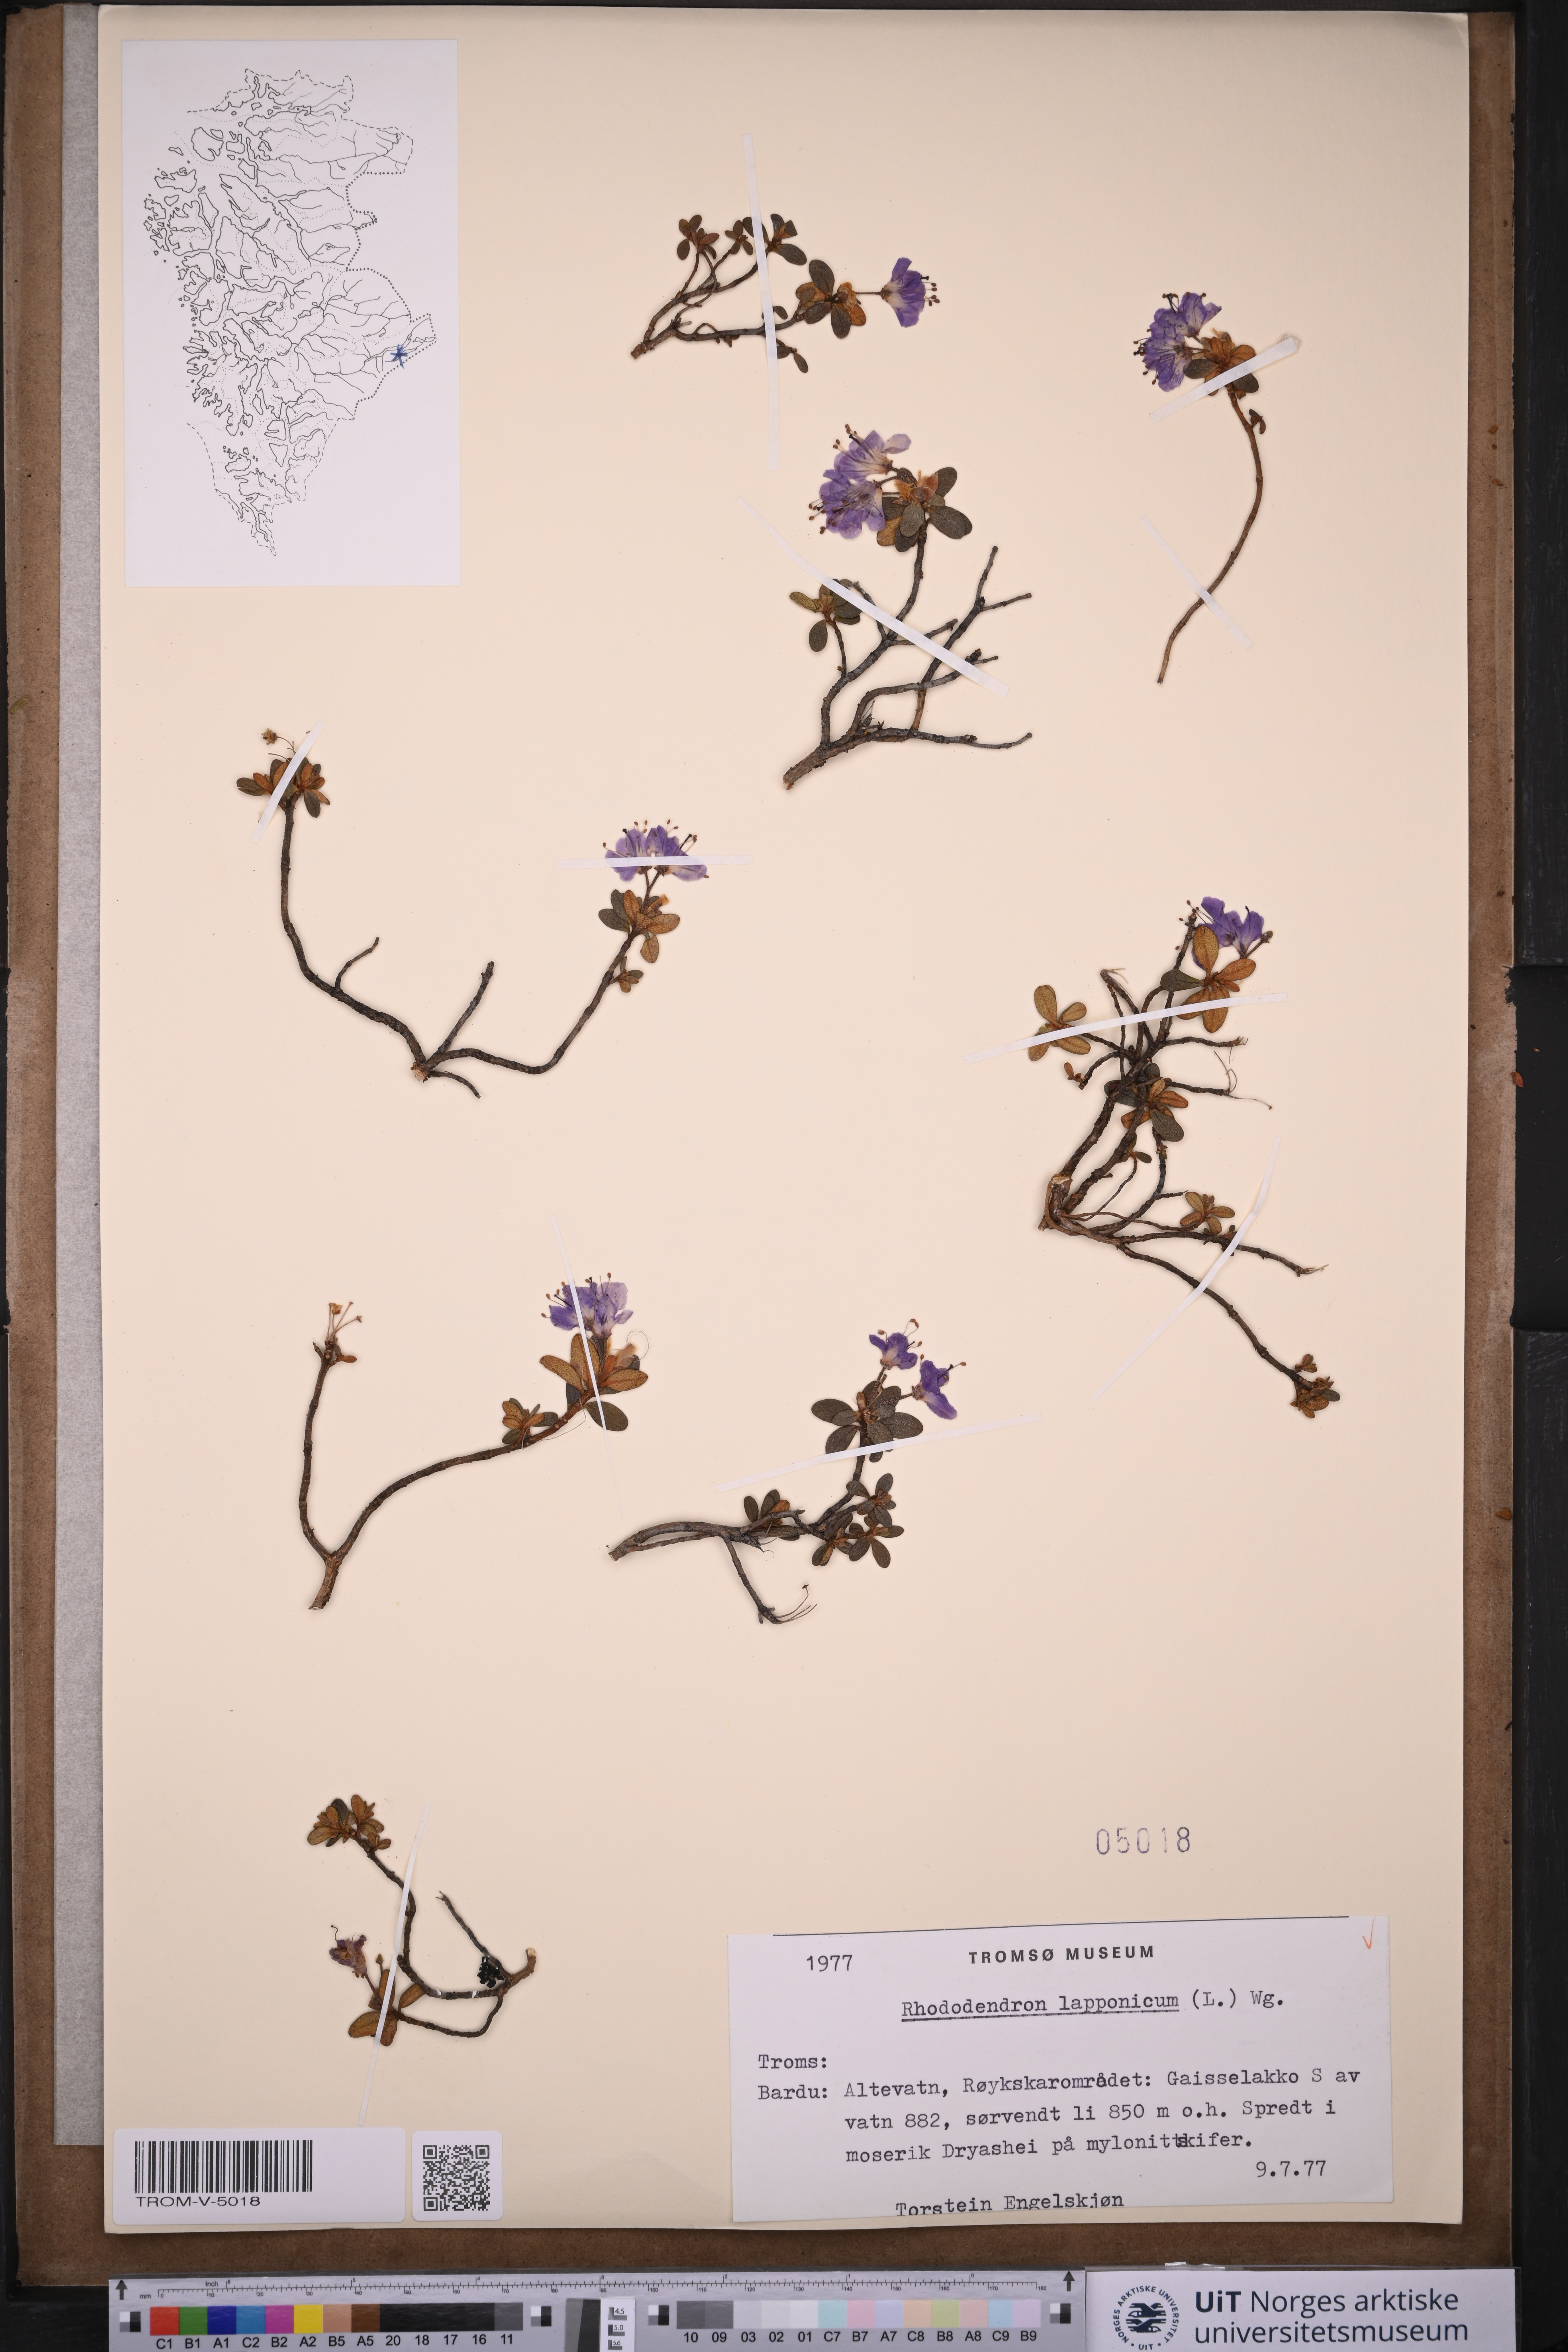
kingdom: Plantae
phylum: Tracheophyta
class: Magnoliopsida
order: Ericales
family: Ericaceae
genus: Rhododendron
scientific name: Rhododendron lapponicum
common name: Lapland rhododendron
